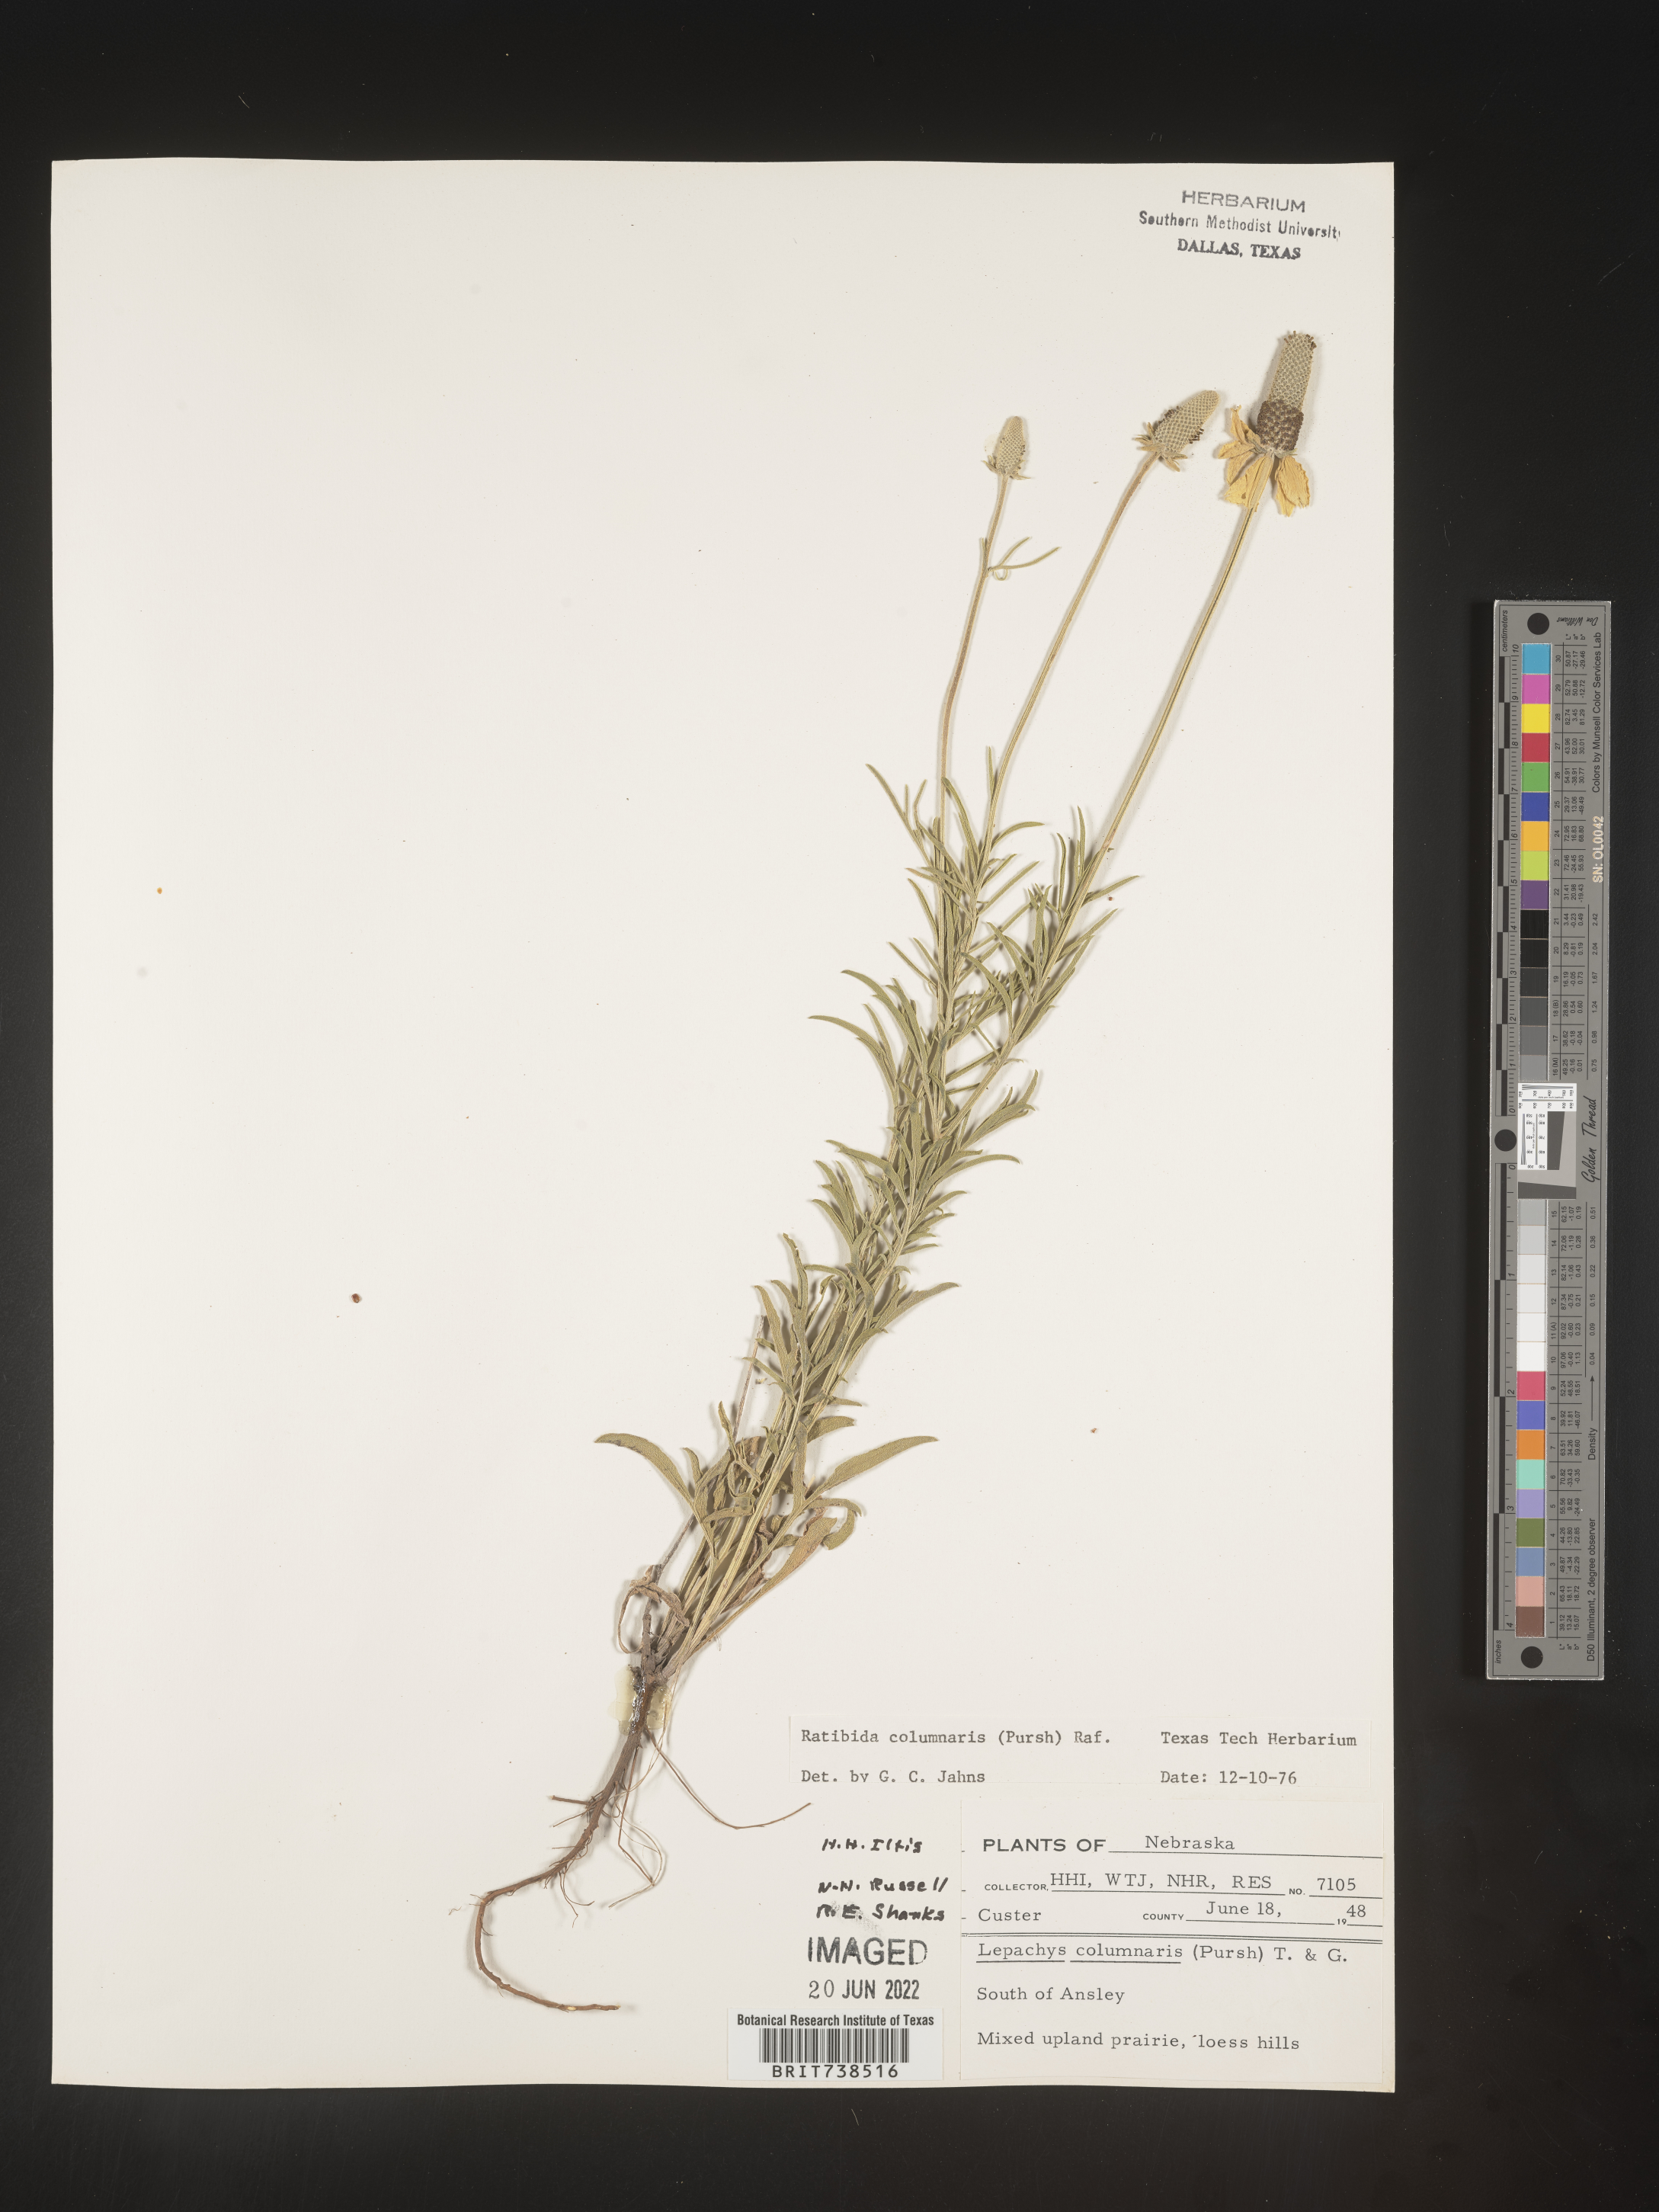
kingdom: Plantae
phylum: Tracheophyta
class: Magnoliopsida
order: Asterales
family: Asteraceae
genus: Ratibida
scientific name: Ratibida columnifera
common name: Prairie coneflower
